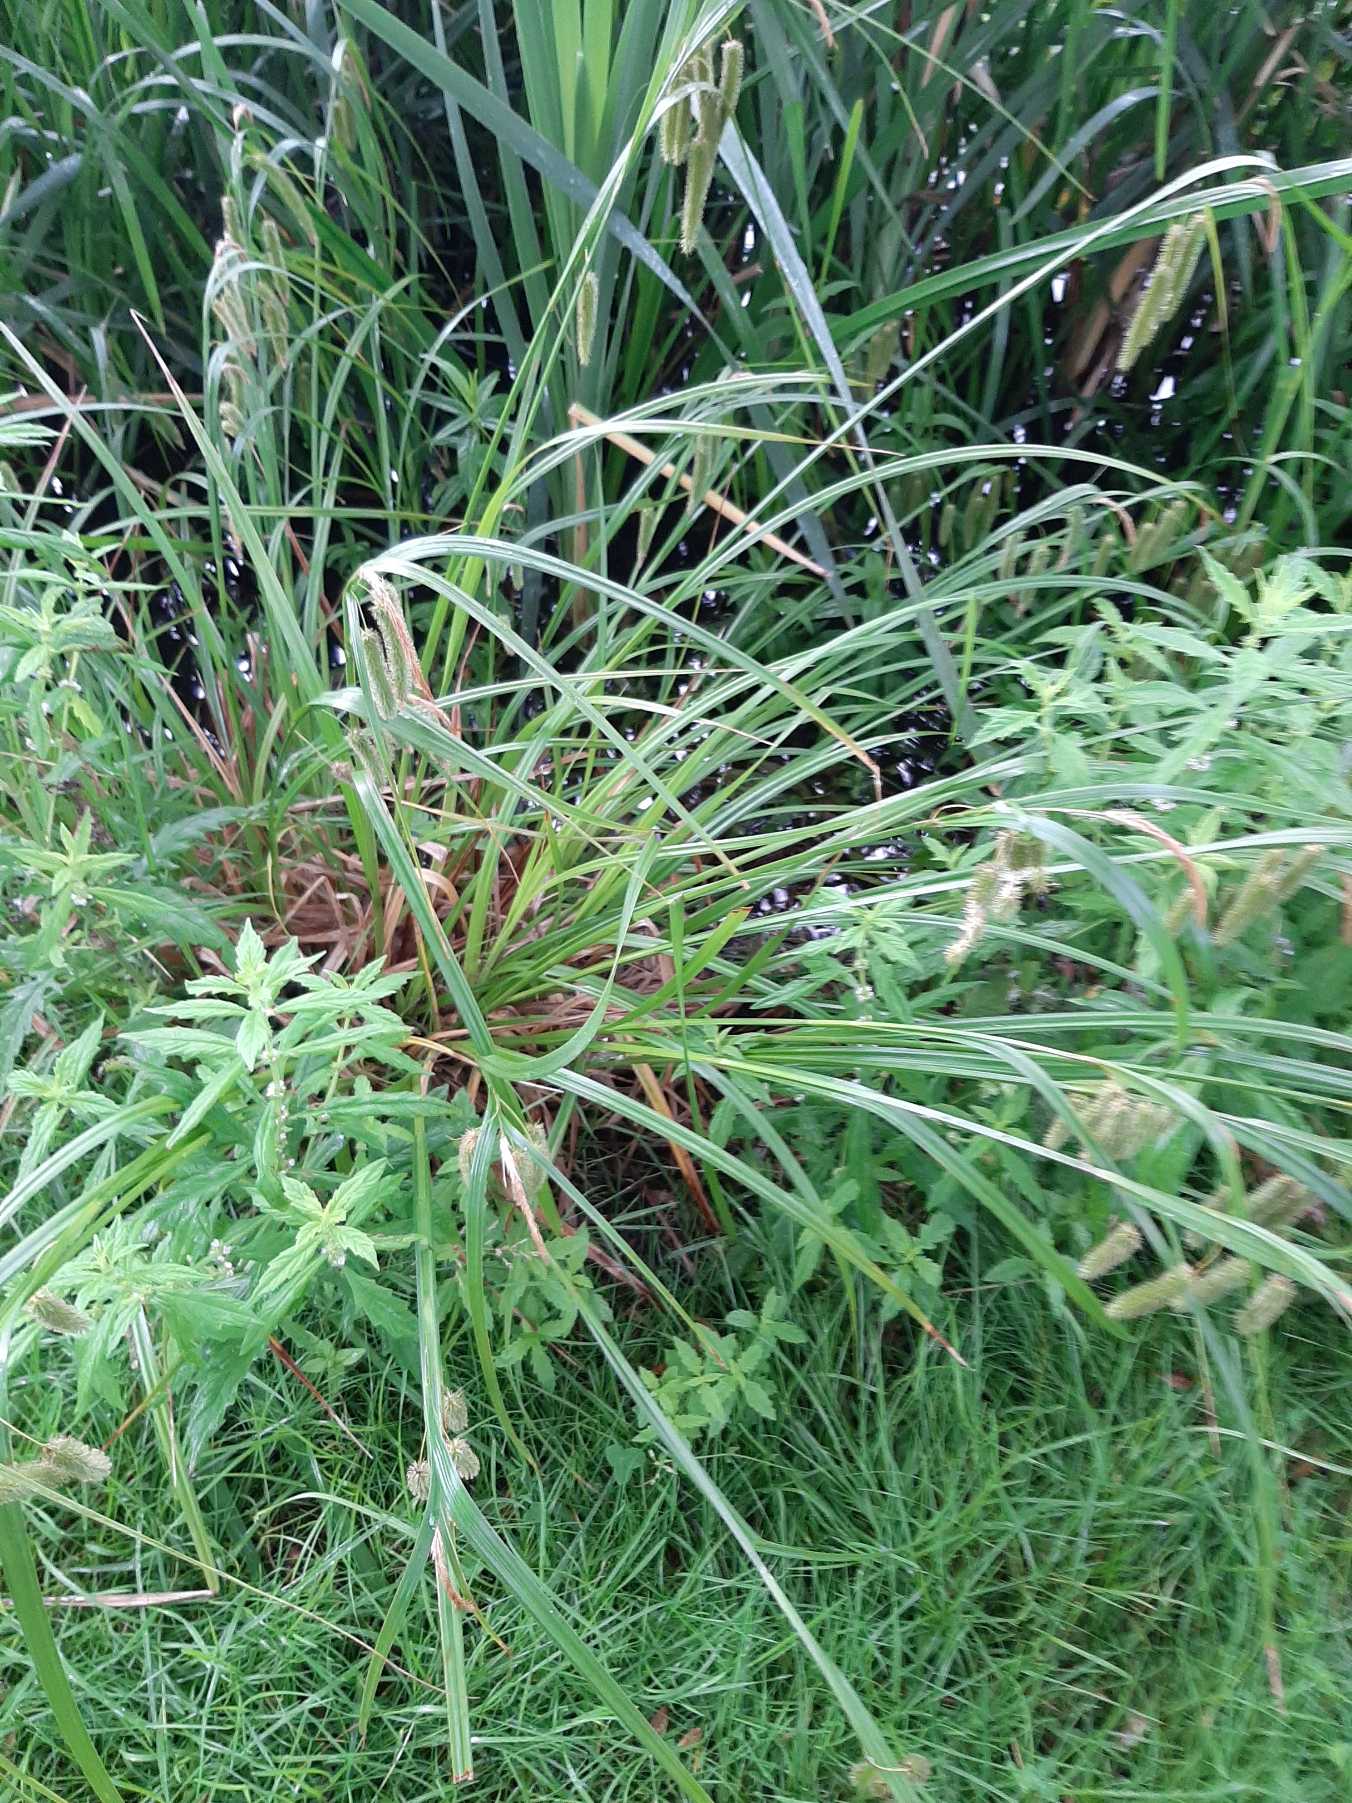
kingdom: Plantae
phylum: Tracheophyta
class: Liliopsida
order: Poales
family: Cyperaceae
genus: Carex
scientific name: Carex pseudocyperus
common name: Knippe-star
